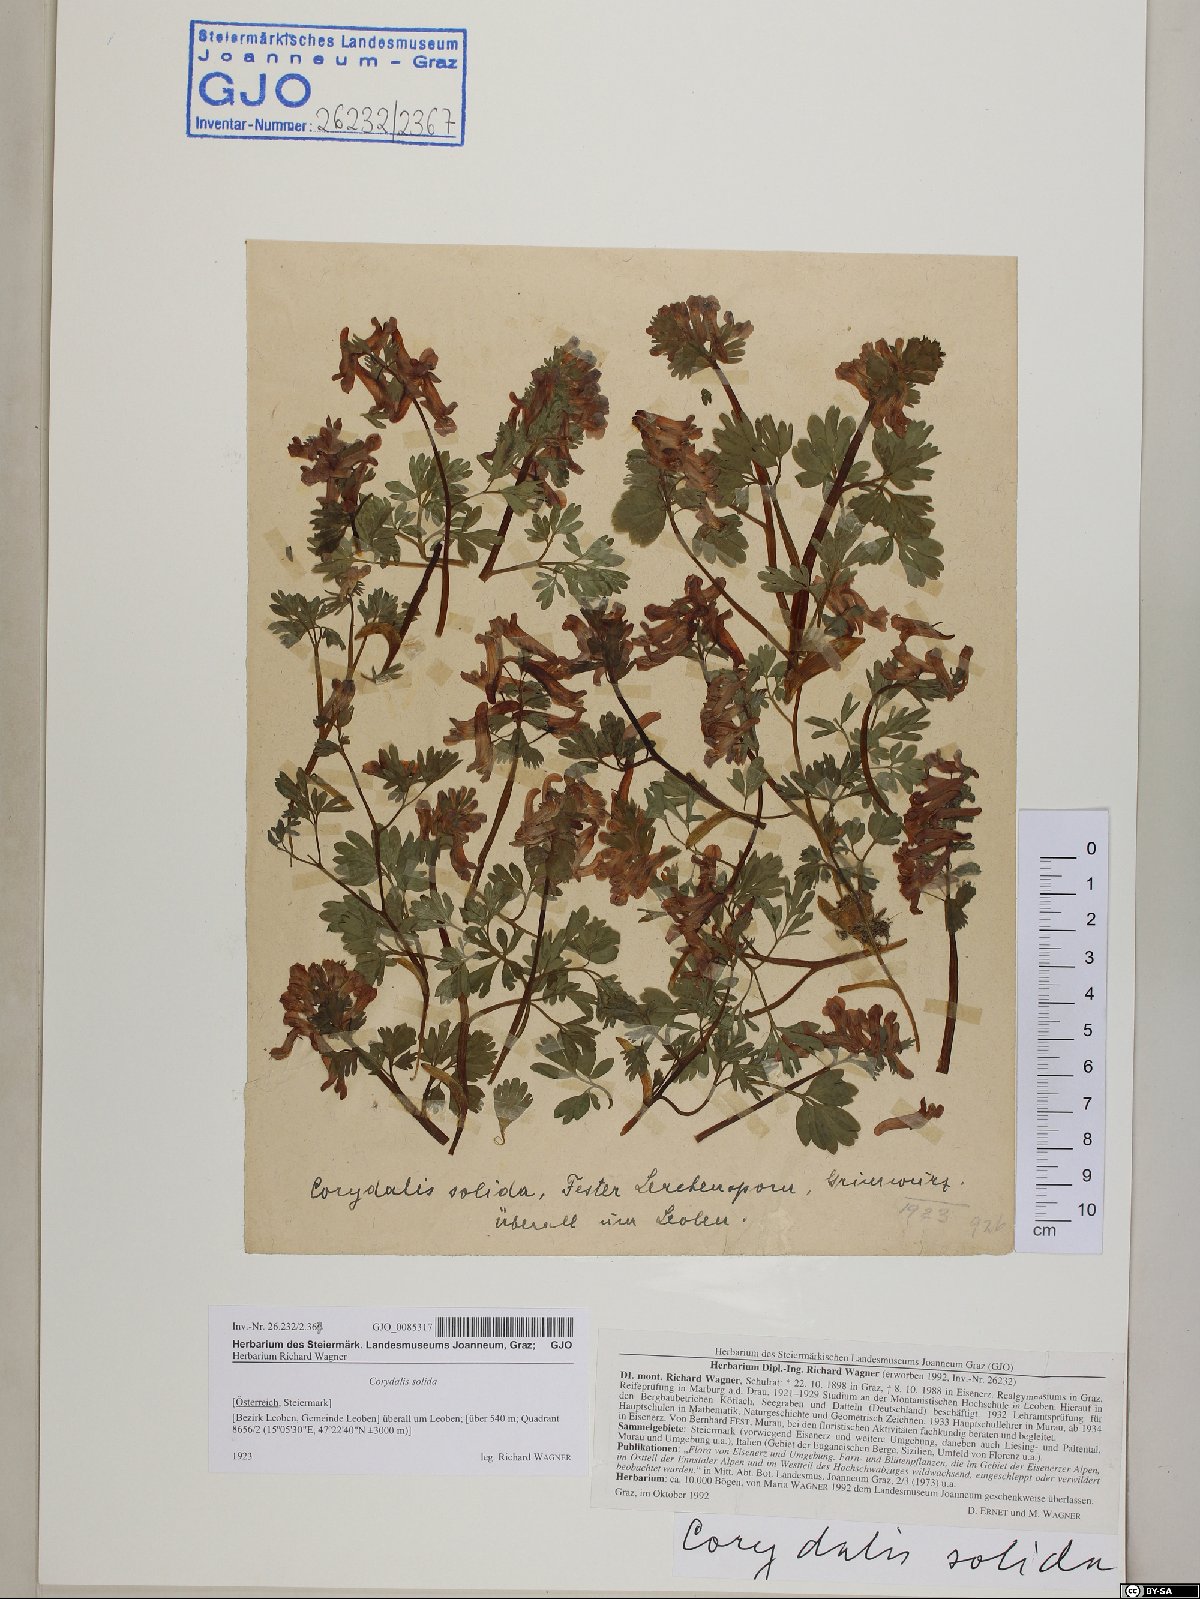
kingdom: Plantae
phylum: Tracheophyta
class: Magnoliopsida
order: Ranunculales
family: Papaveraceae
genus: Corydalis
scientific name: Corydalis solida
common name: Bird-in-a-bush
